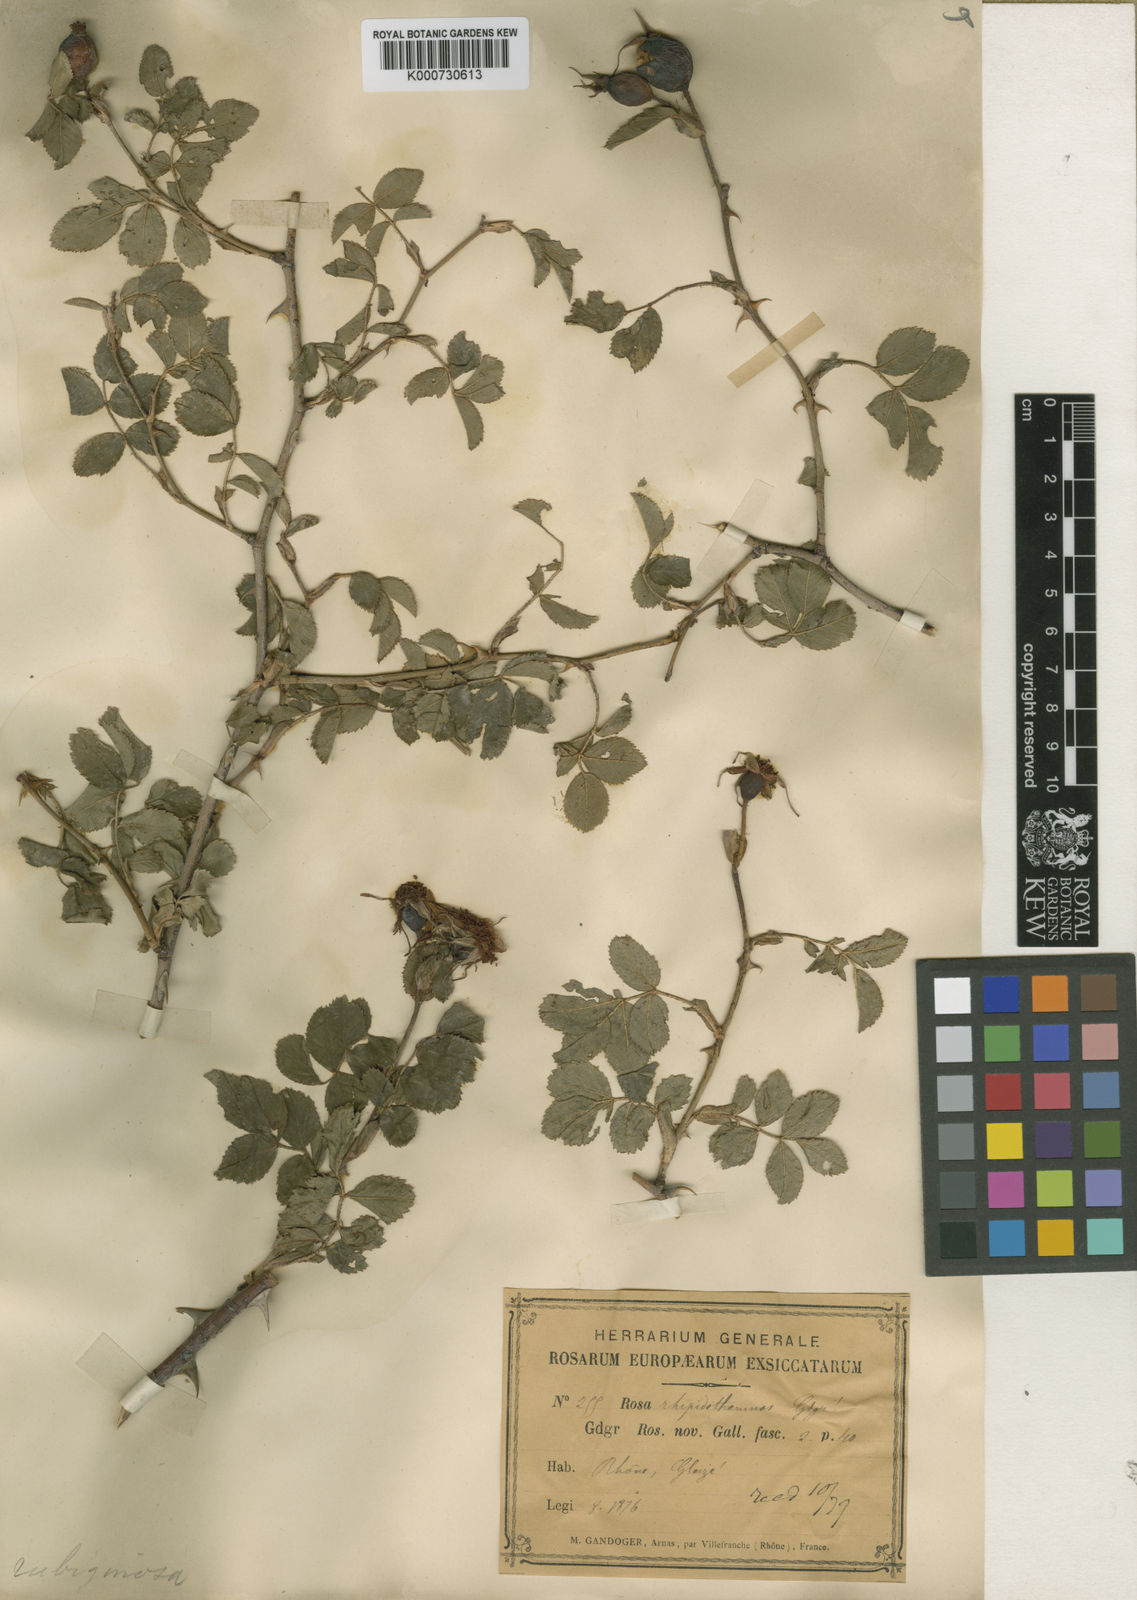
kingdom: Plantae
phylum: Tracheophyta
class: Magnoliopsida
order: Rosales
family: Rosaceae
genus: Rosa
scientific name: Rosa rubiginosa
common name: Sweet-briar
